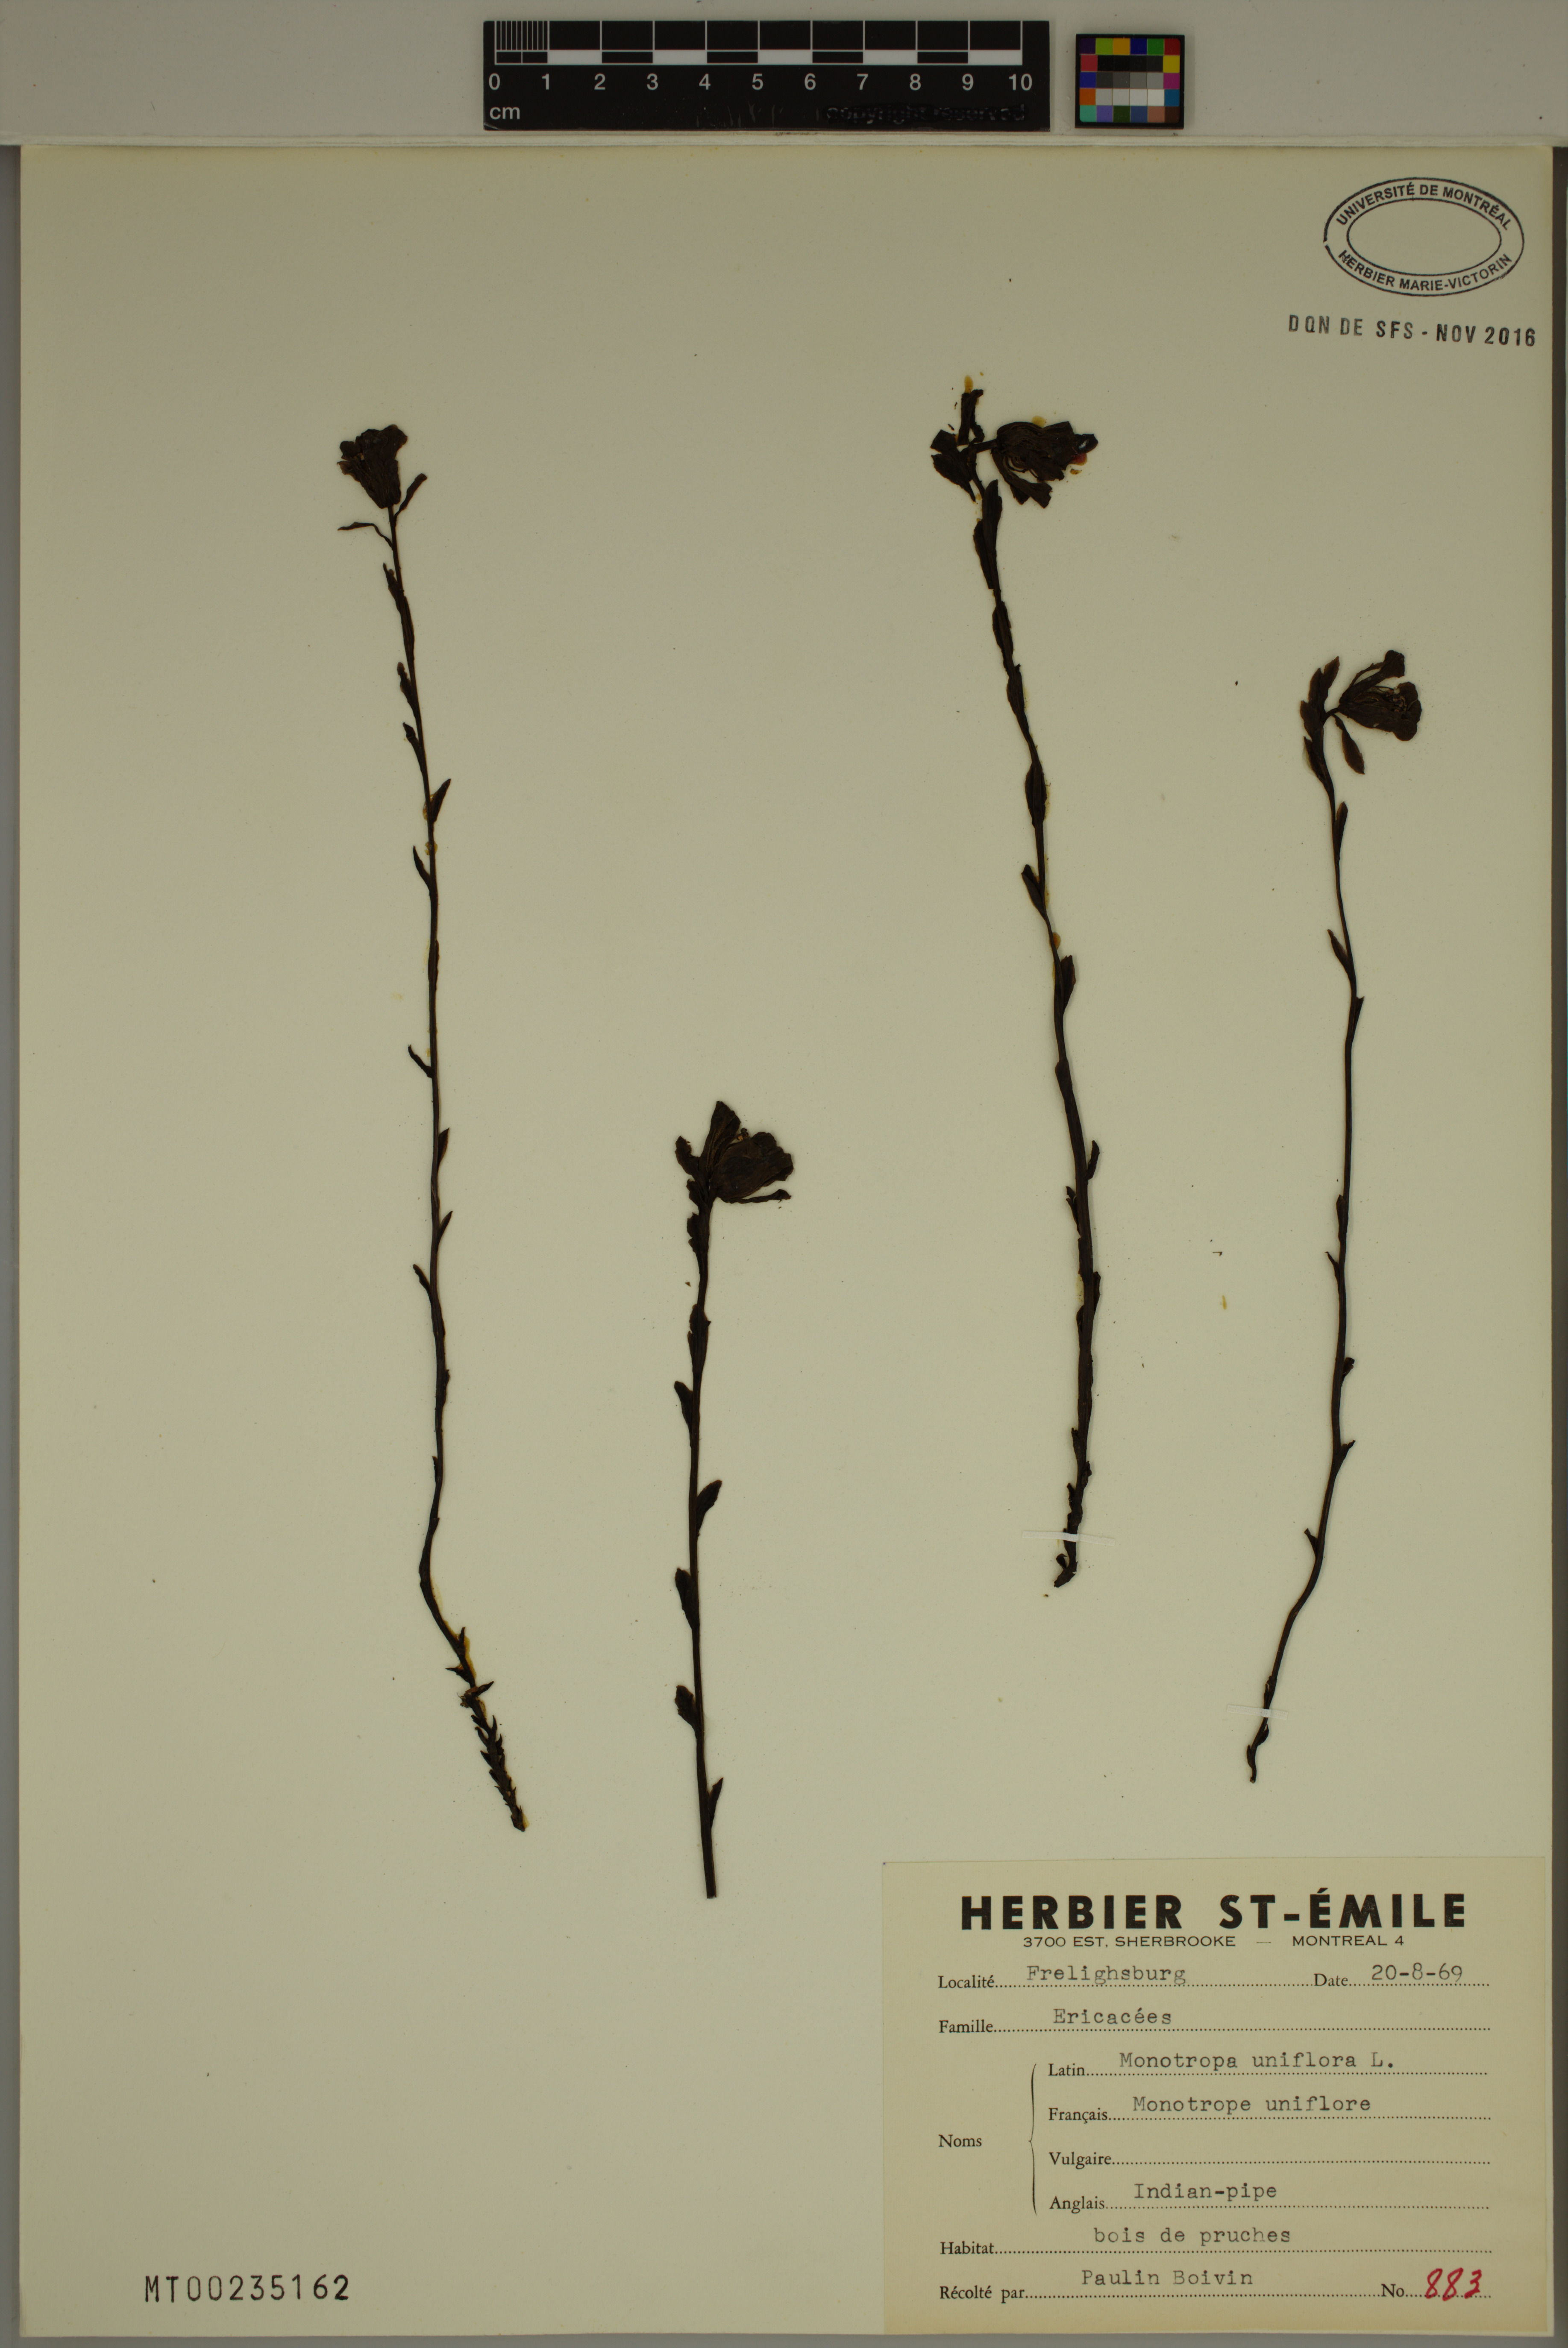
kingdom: Plantae
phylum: Tracheophyta
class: Magnoliopsida
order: Ericales
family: Ericaceae
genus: Monotropa
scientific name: Monotropa uniflora
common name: Convulsion root
